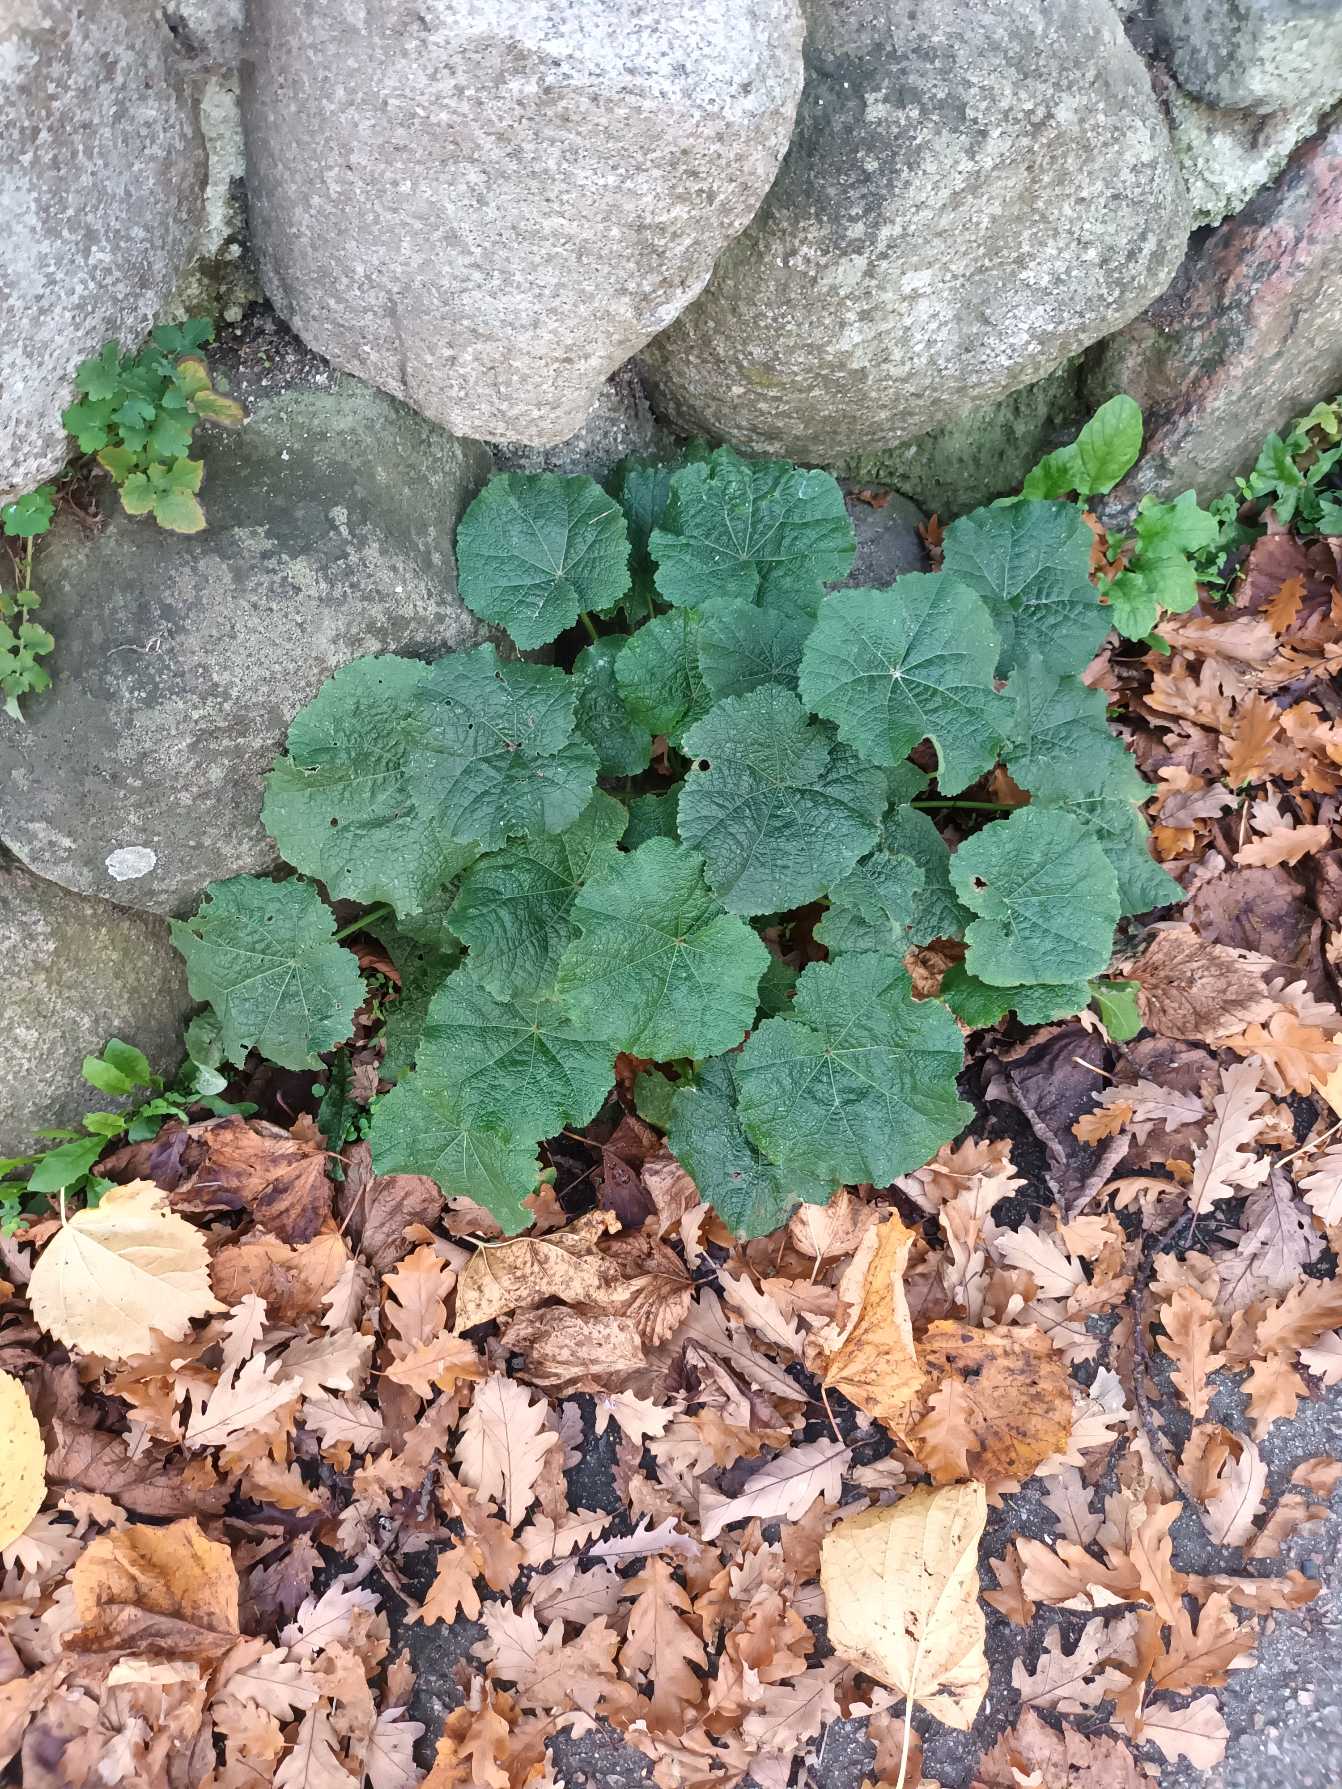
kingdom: Plantae
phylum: Tracheophyta
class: Magnoliopsida
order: Malvales
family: Malvaceae
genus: Alcea
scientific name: Alcea rosea
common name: Have-stokrose
